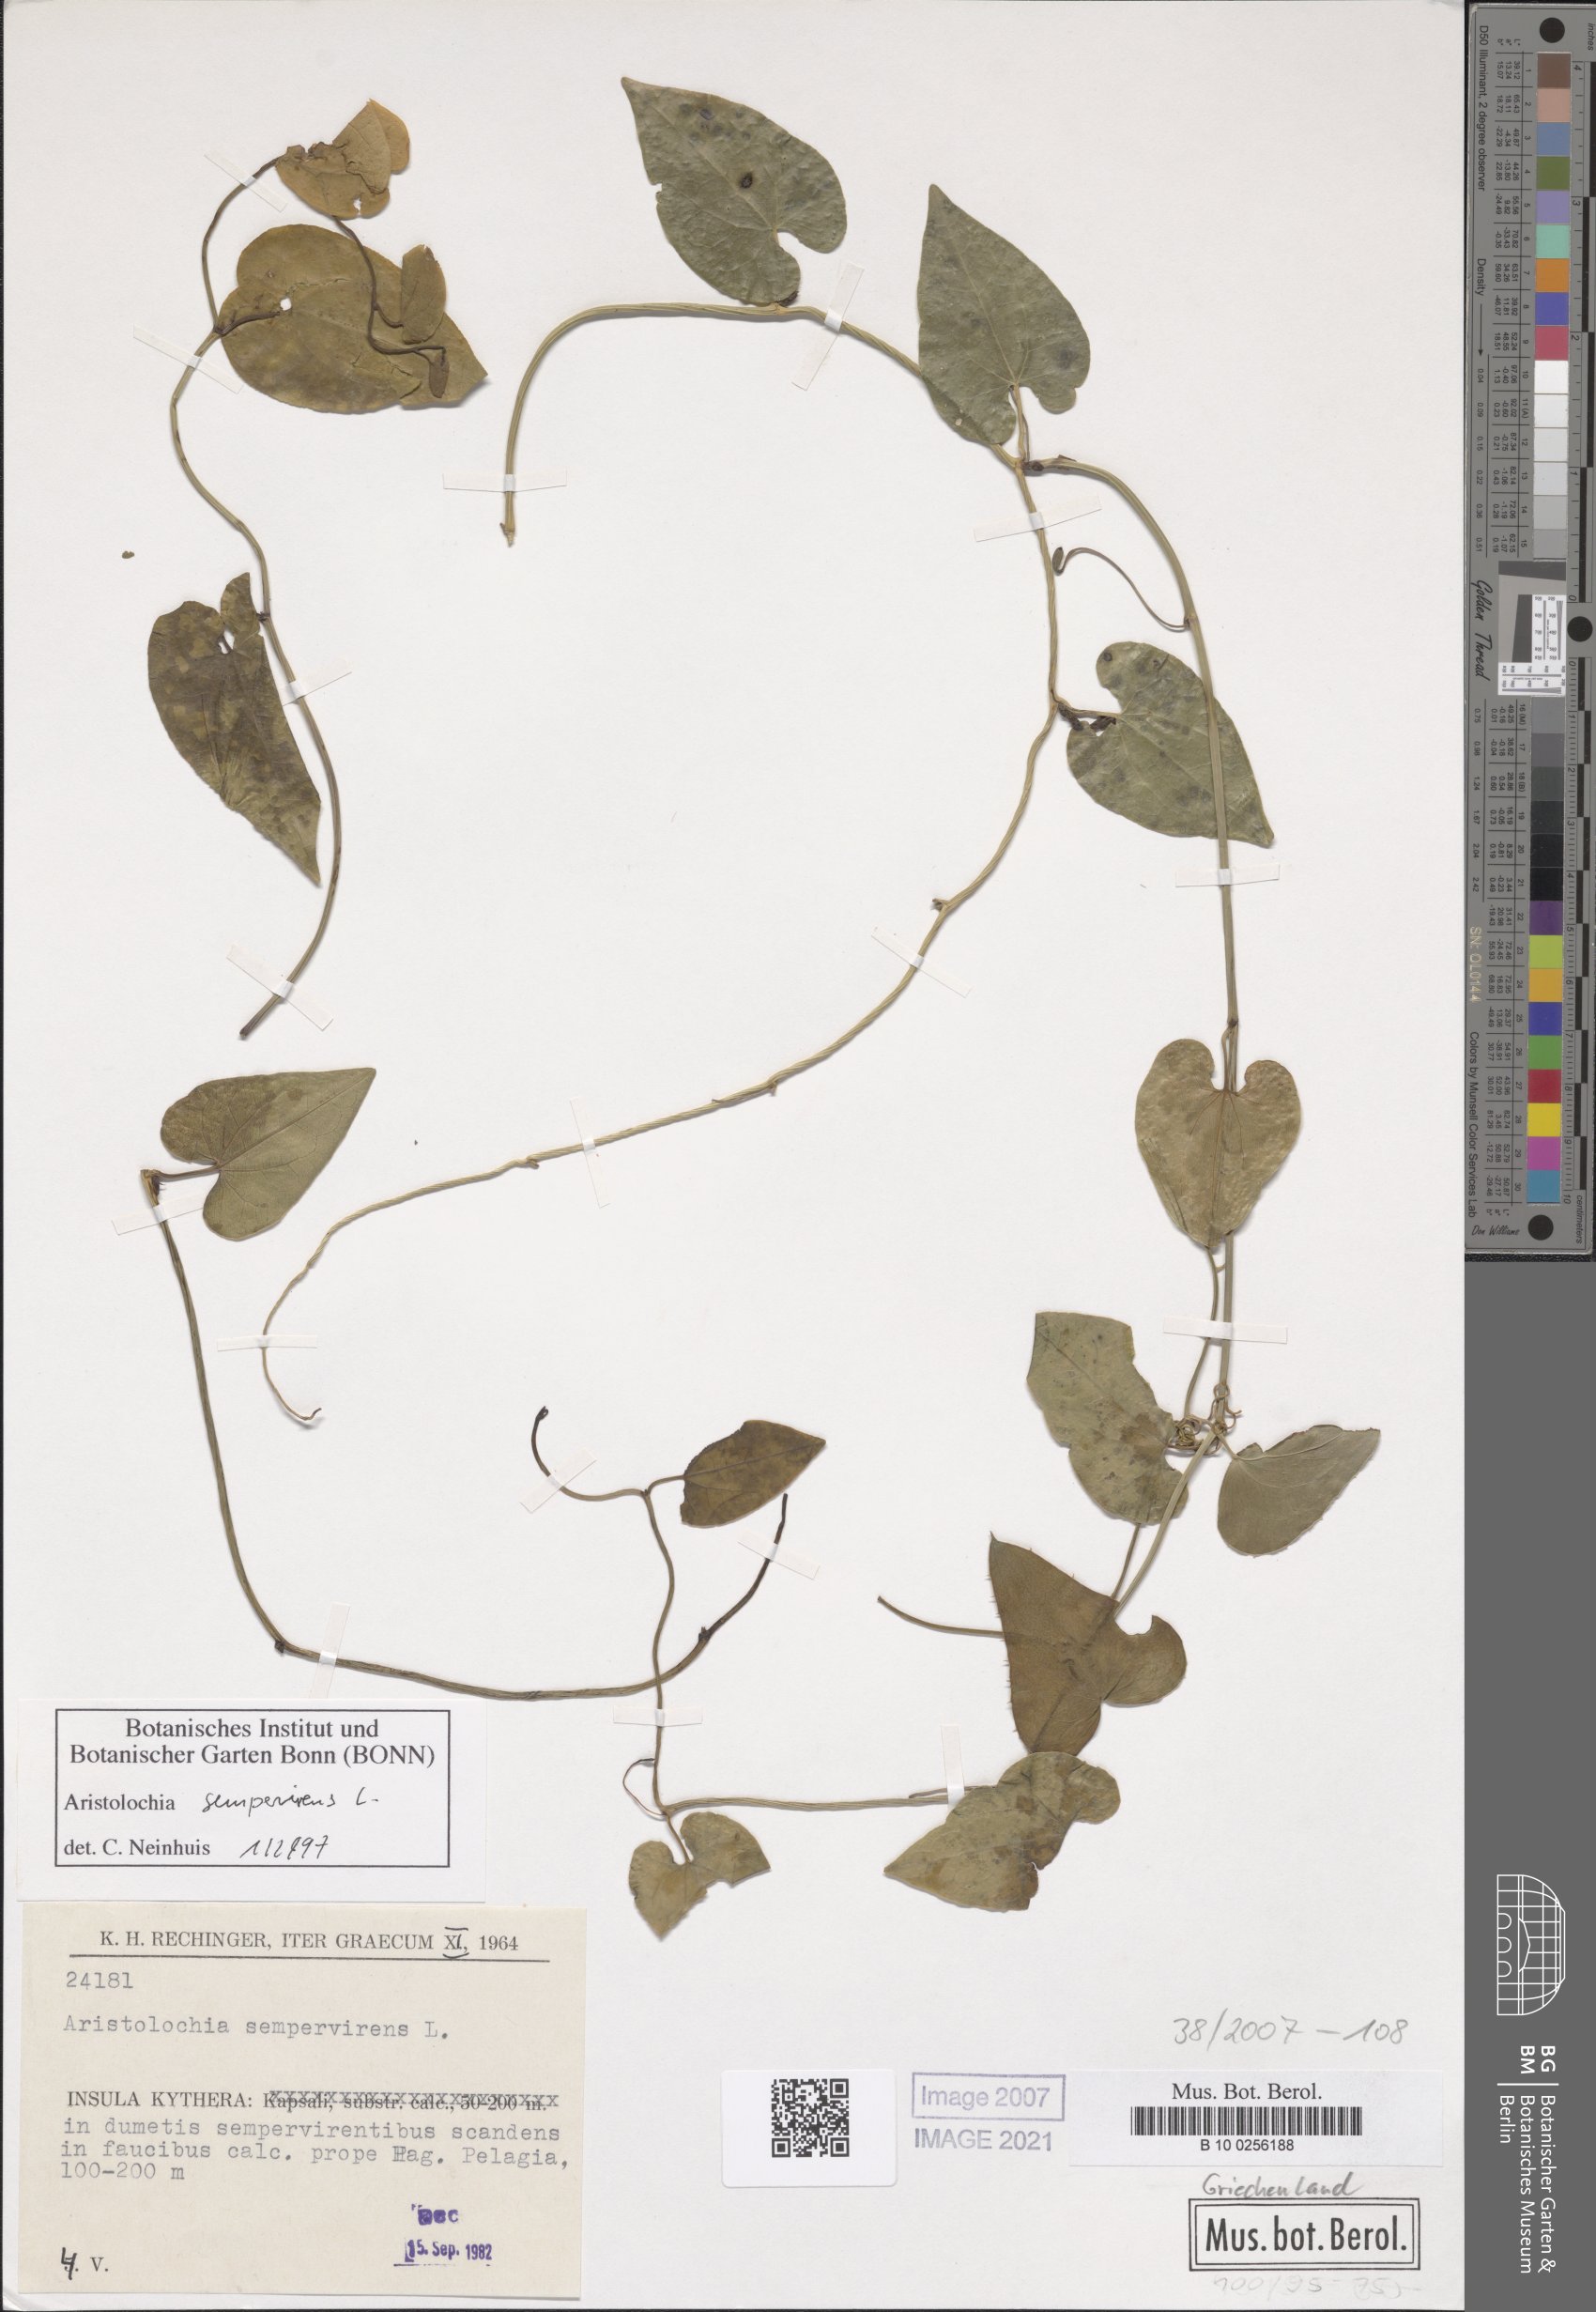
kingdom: Plantae
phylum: Tracheophyta
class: Magnoliopsida
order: Piperales
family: Aristolochiaceae
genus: Aristolochia
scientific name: Aristolochia sempervirens
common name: Long birthwort
